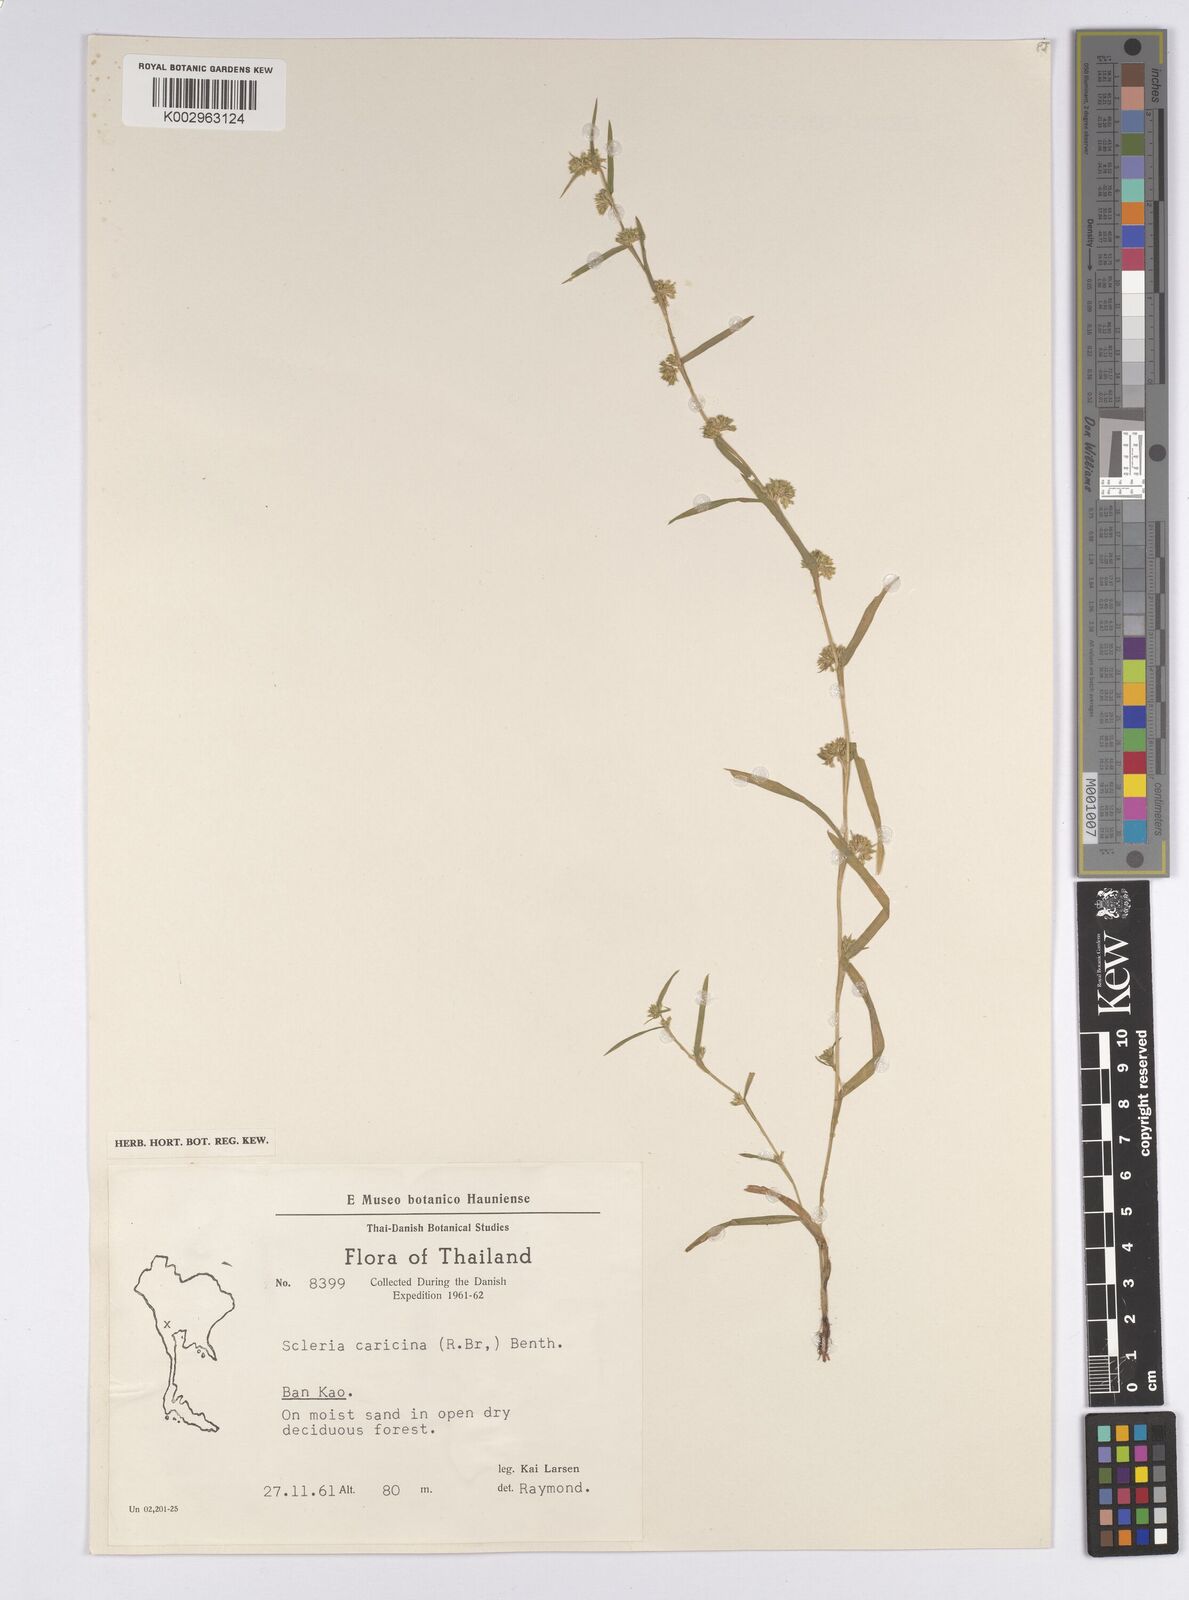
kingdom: Plantae
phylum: Tracheophyta
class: Liliopsida
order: Poales
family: Cyperaceae
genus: Diplacrum
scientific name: Diplacrum caricinum
